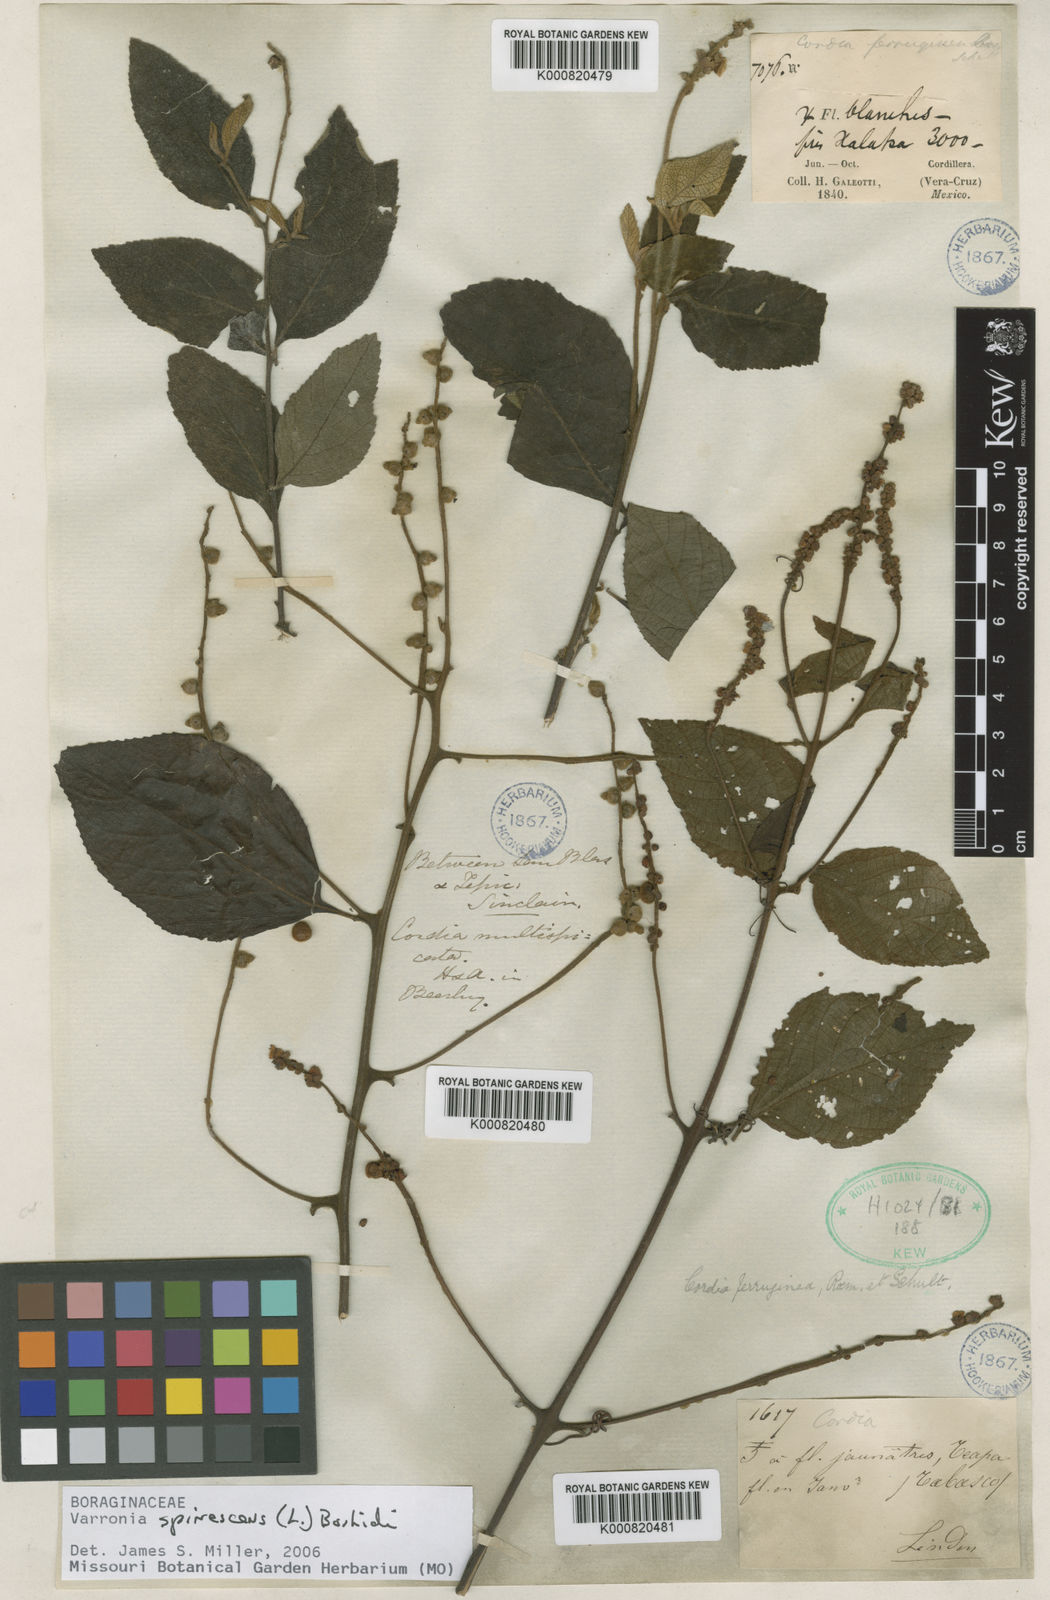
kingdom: Plantae
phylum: Tracheophyta
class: Magnoliopsida
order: Boraginales
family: Cordiaceae
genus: Varronia
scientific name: Varronia spinescens
